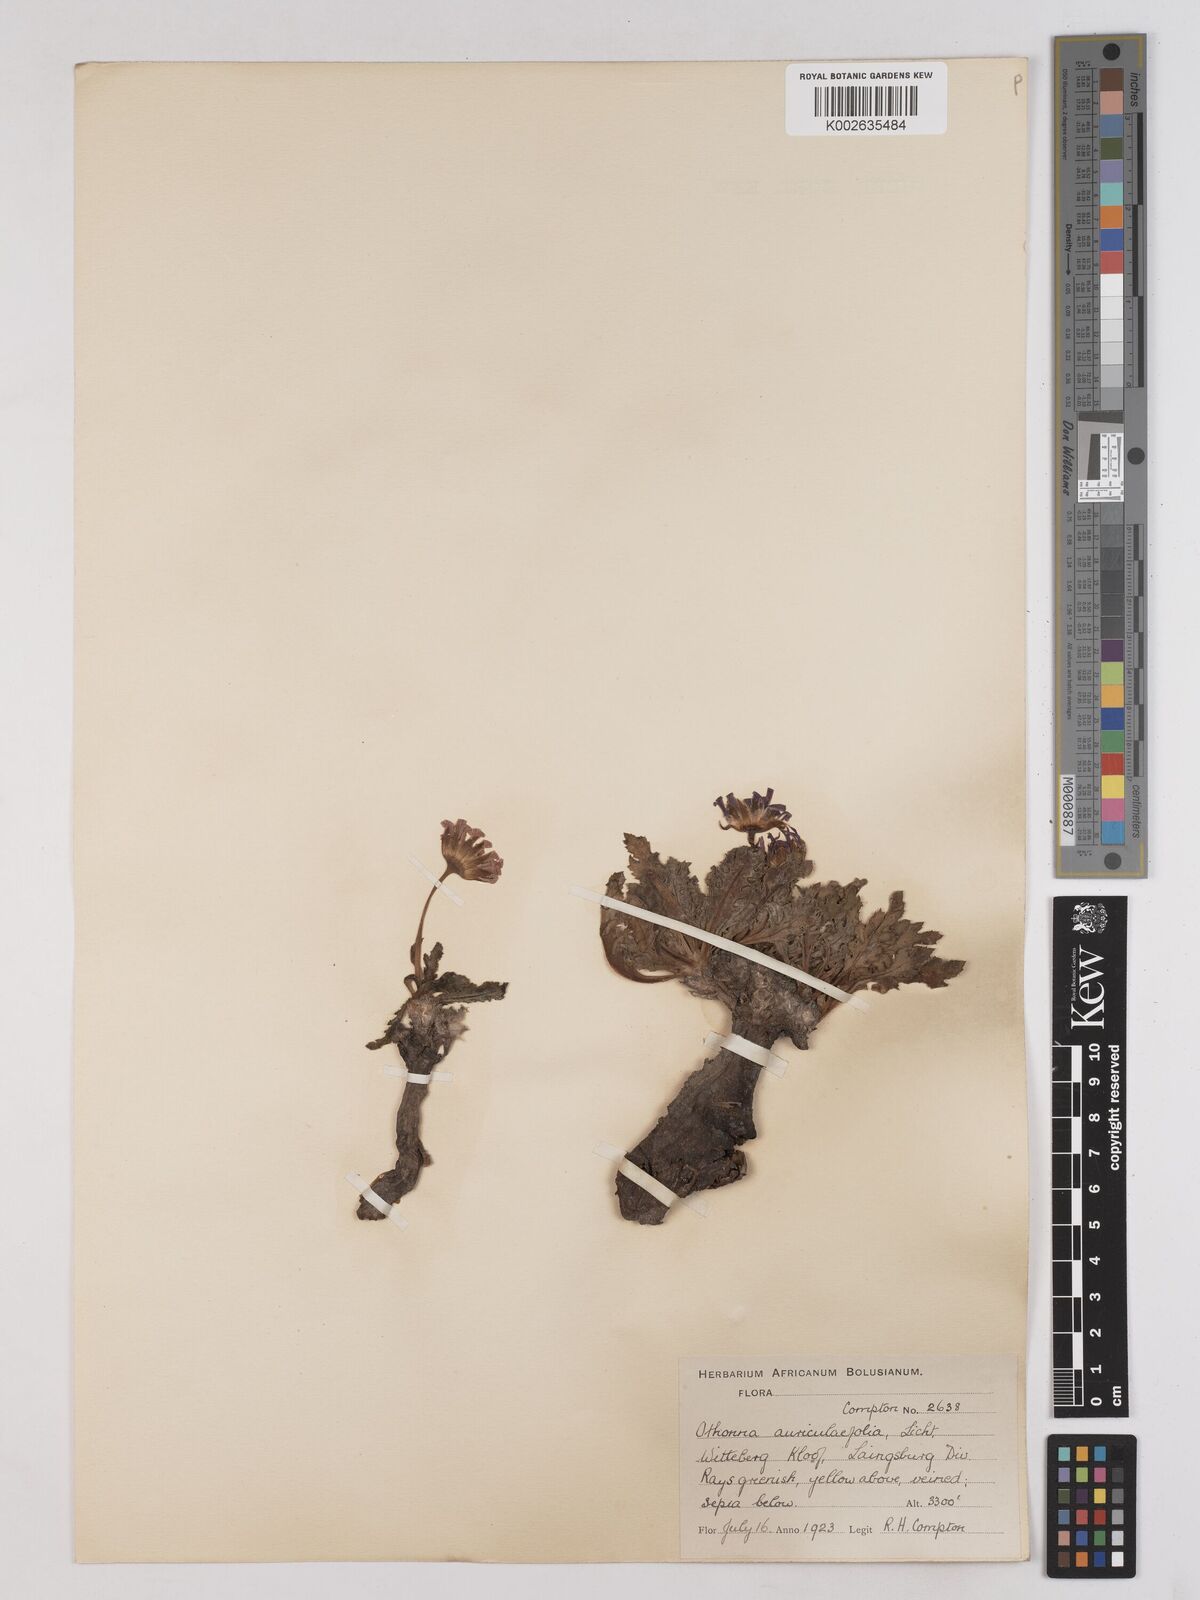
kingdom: Plantae
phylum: Tracheophyta
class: Magnoliopsida
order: Asterales
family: Asteraceae
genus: Othonna
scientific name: Othonna auriculifolia
